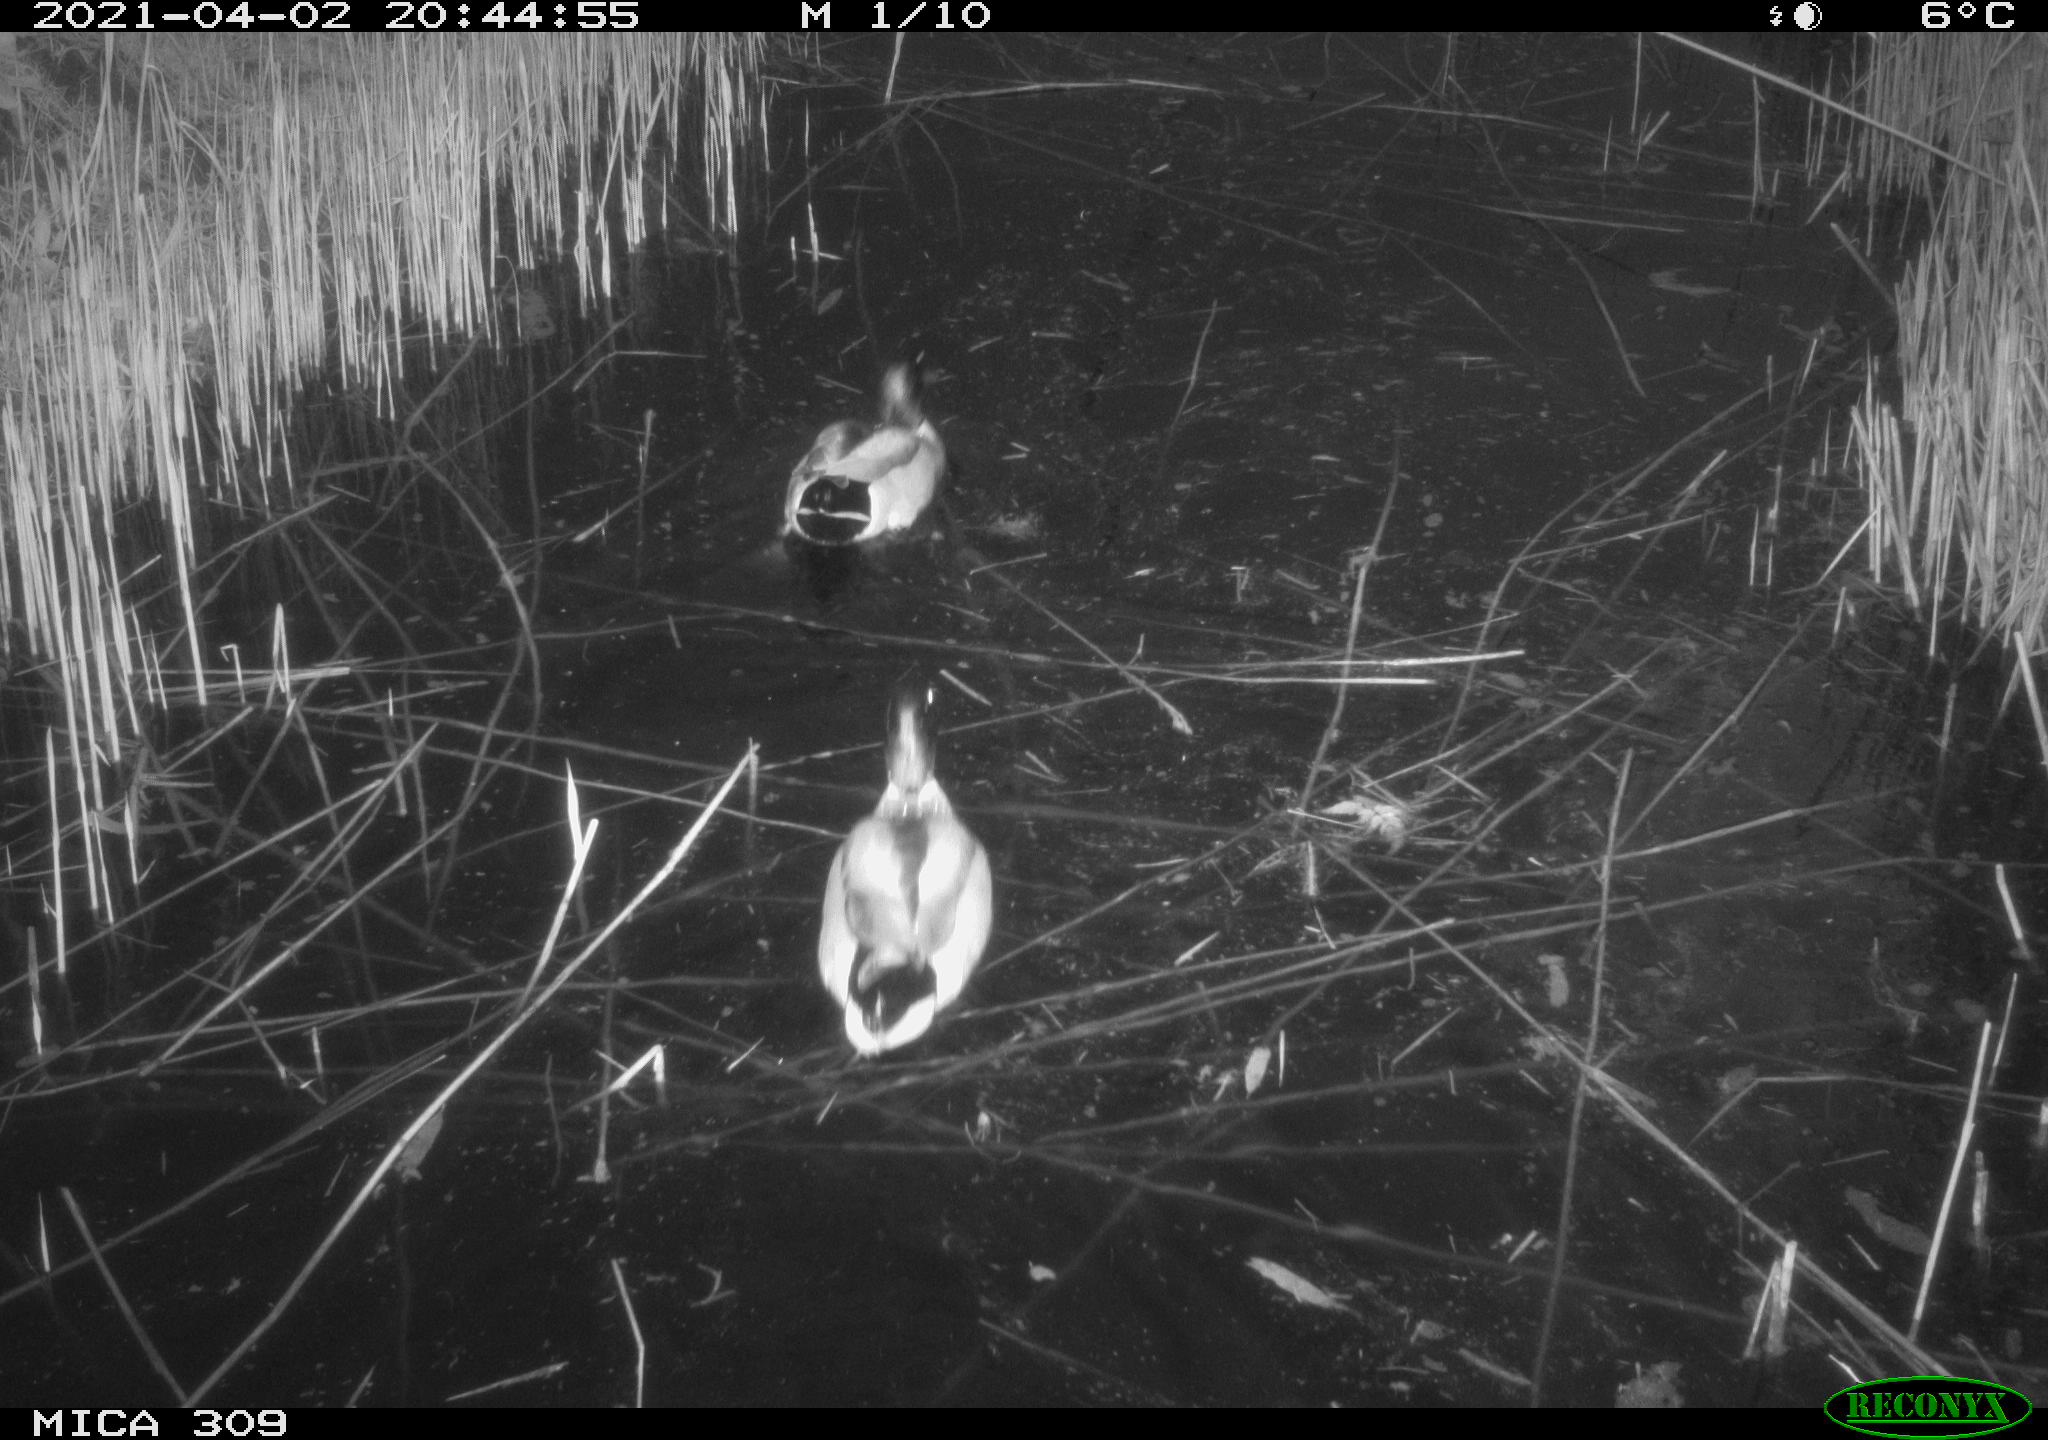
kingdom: Animalia
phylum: Chordata
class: Aves
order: Anseriformes
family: Anatidae
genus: Anas
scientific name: Anas platyrhynchos
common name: Mallard
